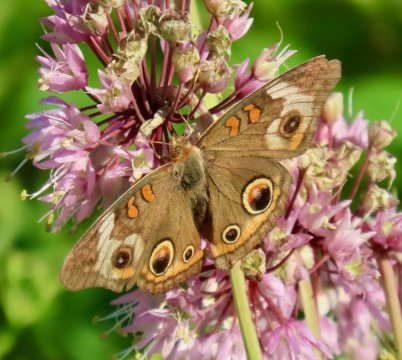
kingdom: Animalia
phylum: Arthropoda
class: Insecta
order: Lepidoptera
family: Nymphalidae
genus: Junonia
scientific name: Junonia coenia
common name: Common Buckeye
